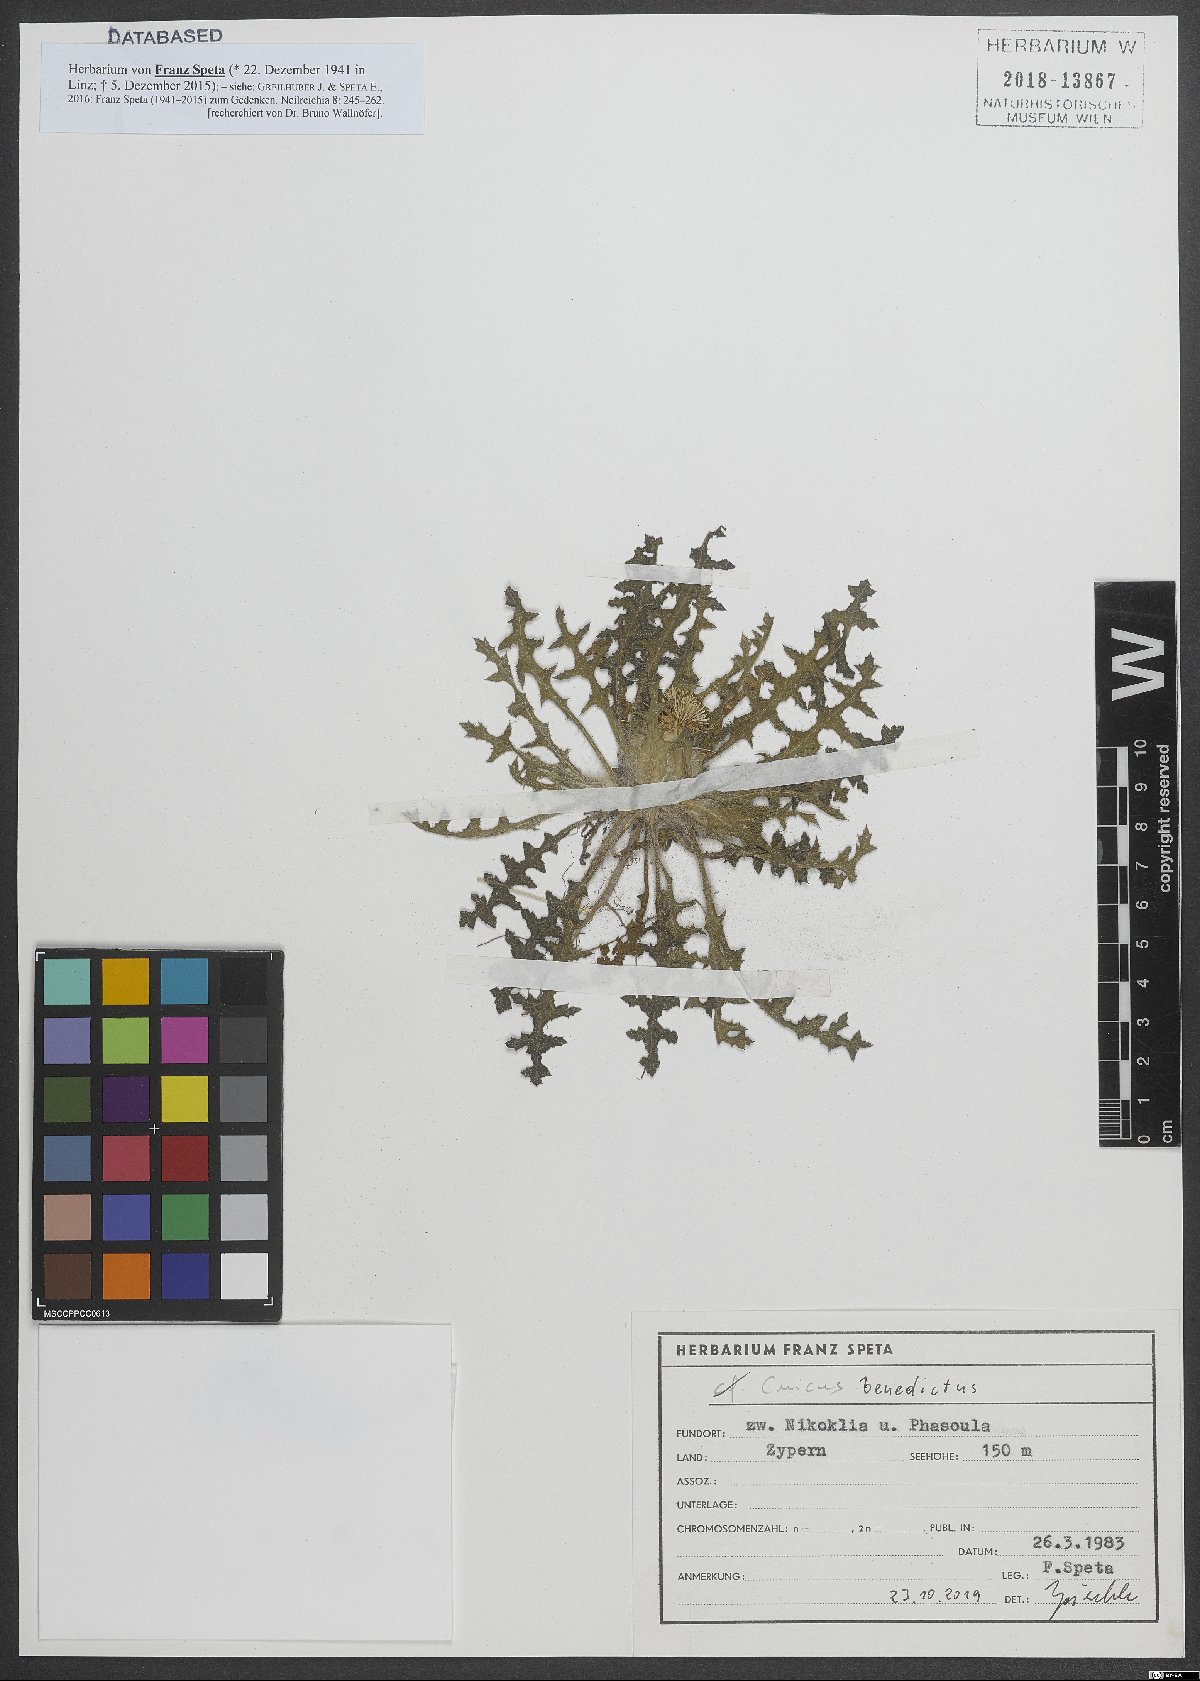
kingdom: Plantae
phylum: Tracheophyta
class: Magnoliopsida
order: Asterales
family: Asteraceae
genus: Centaurea
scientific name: Centaurea benedicta
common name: Blessed thistle
